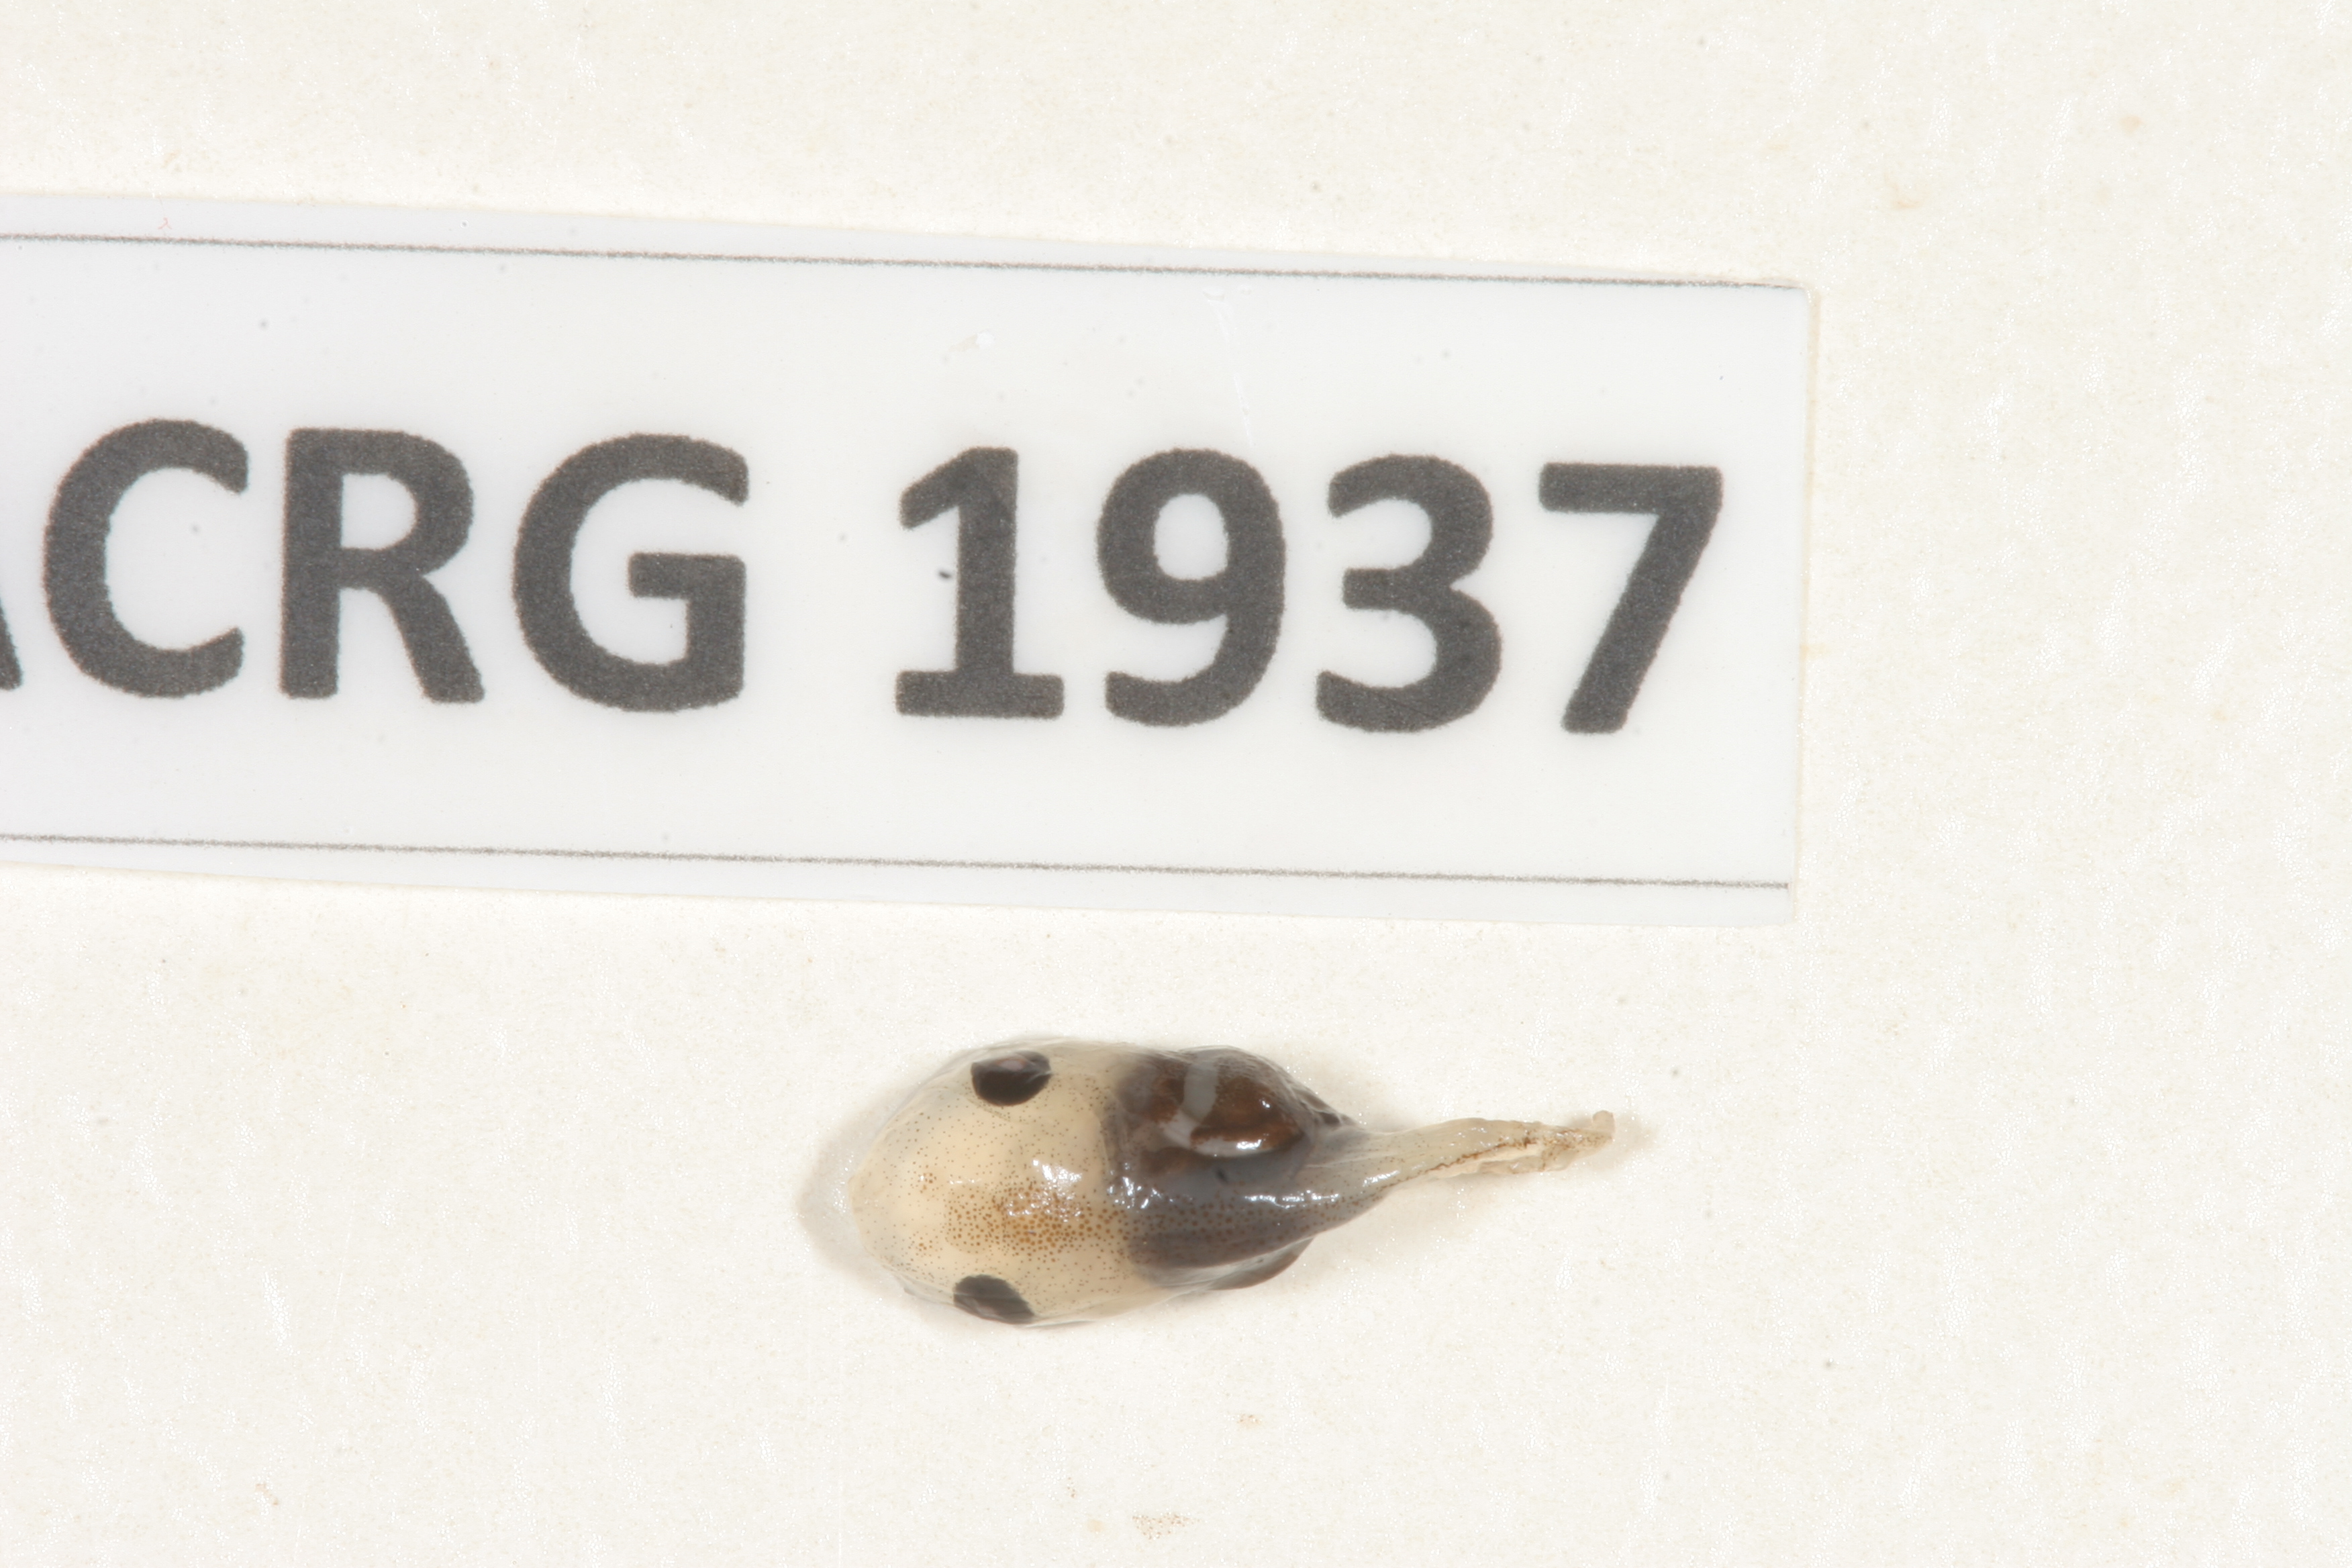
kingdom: Animalia
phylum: Chordata
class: Amphibia
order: Anura
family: Microhylidae
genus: Phrynomantis
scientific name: Phrynomantis bifasciatus
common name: Banded rubber frog
